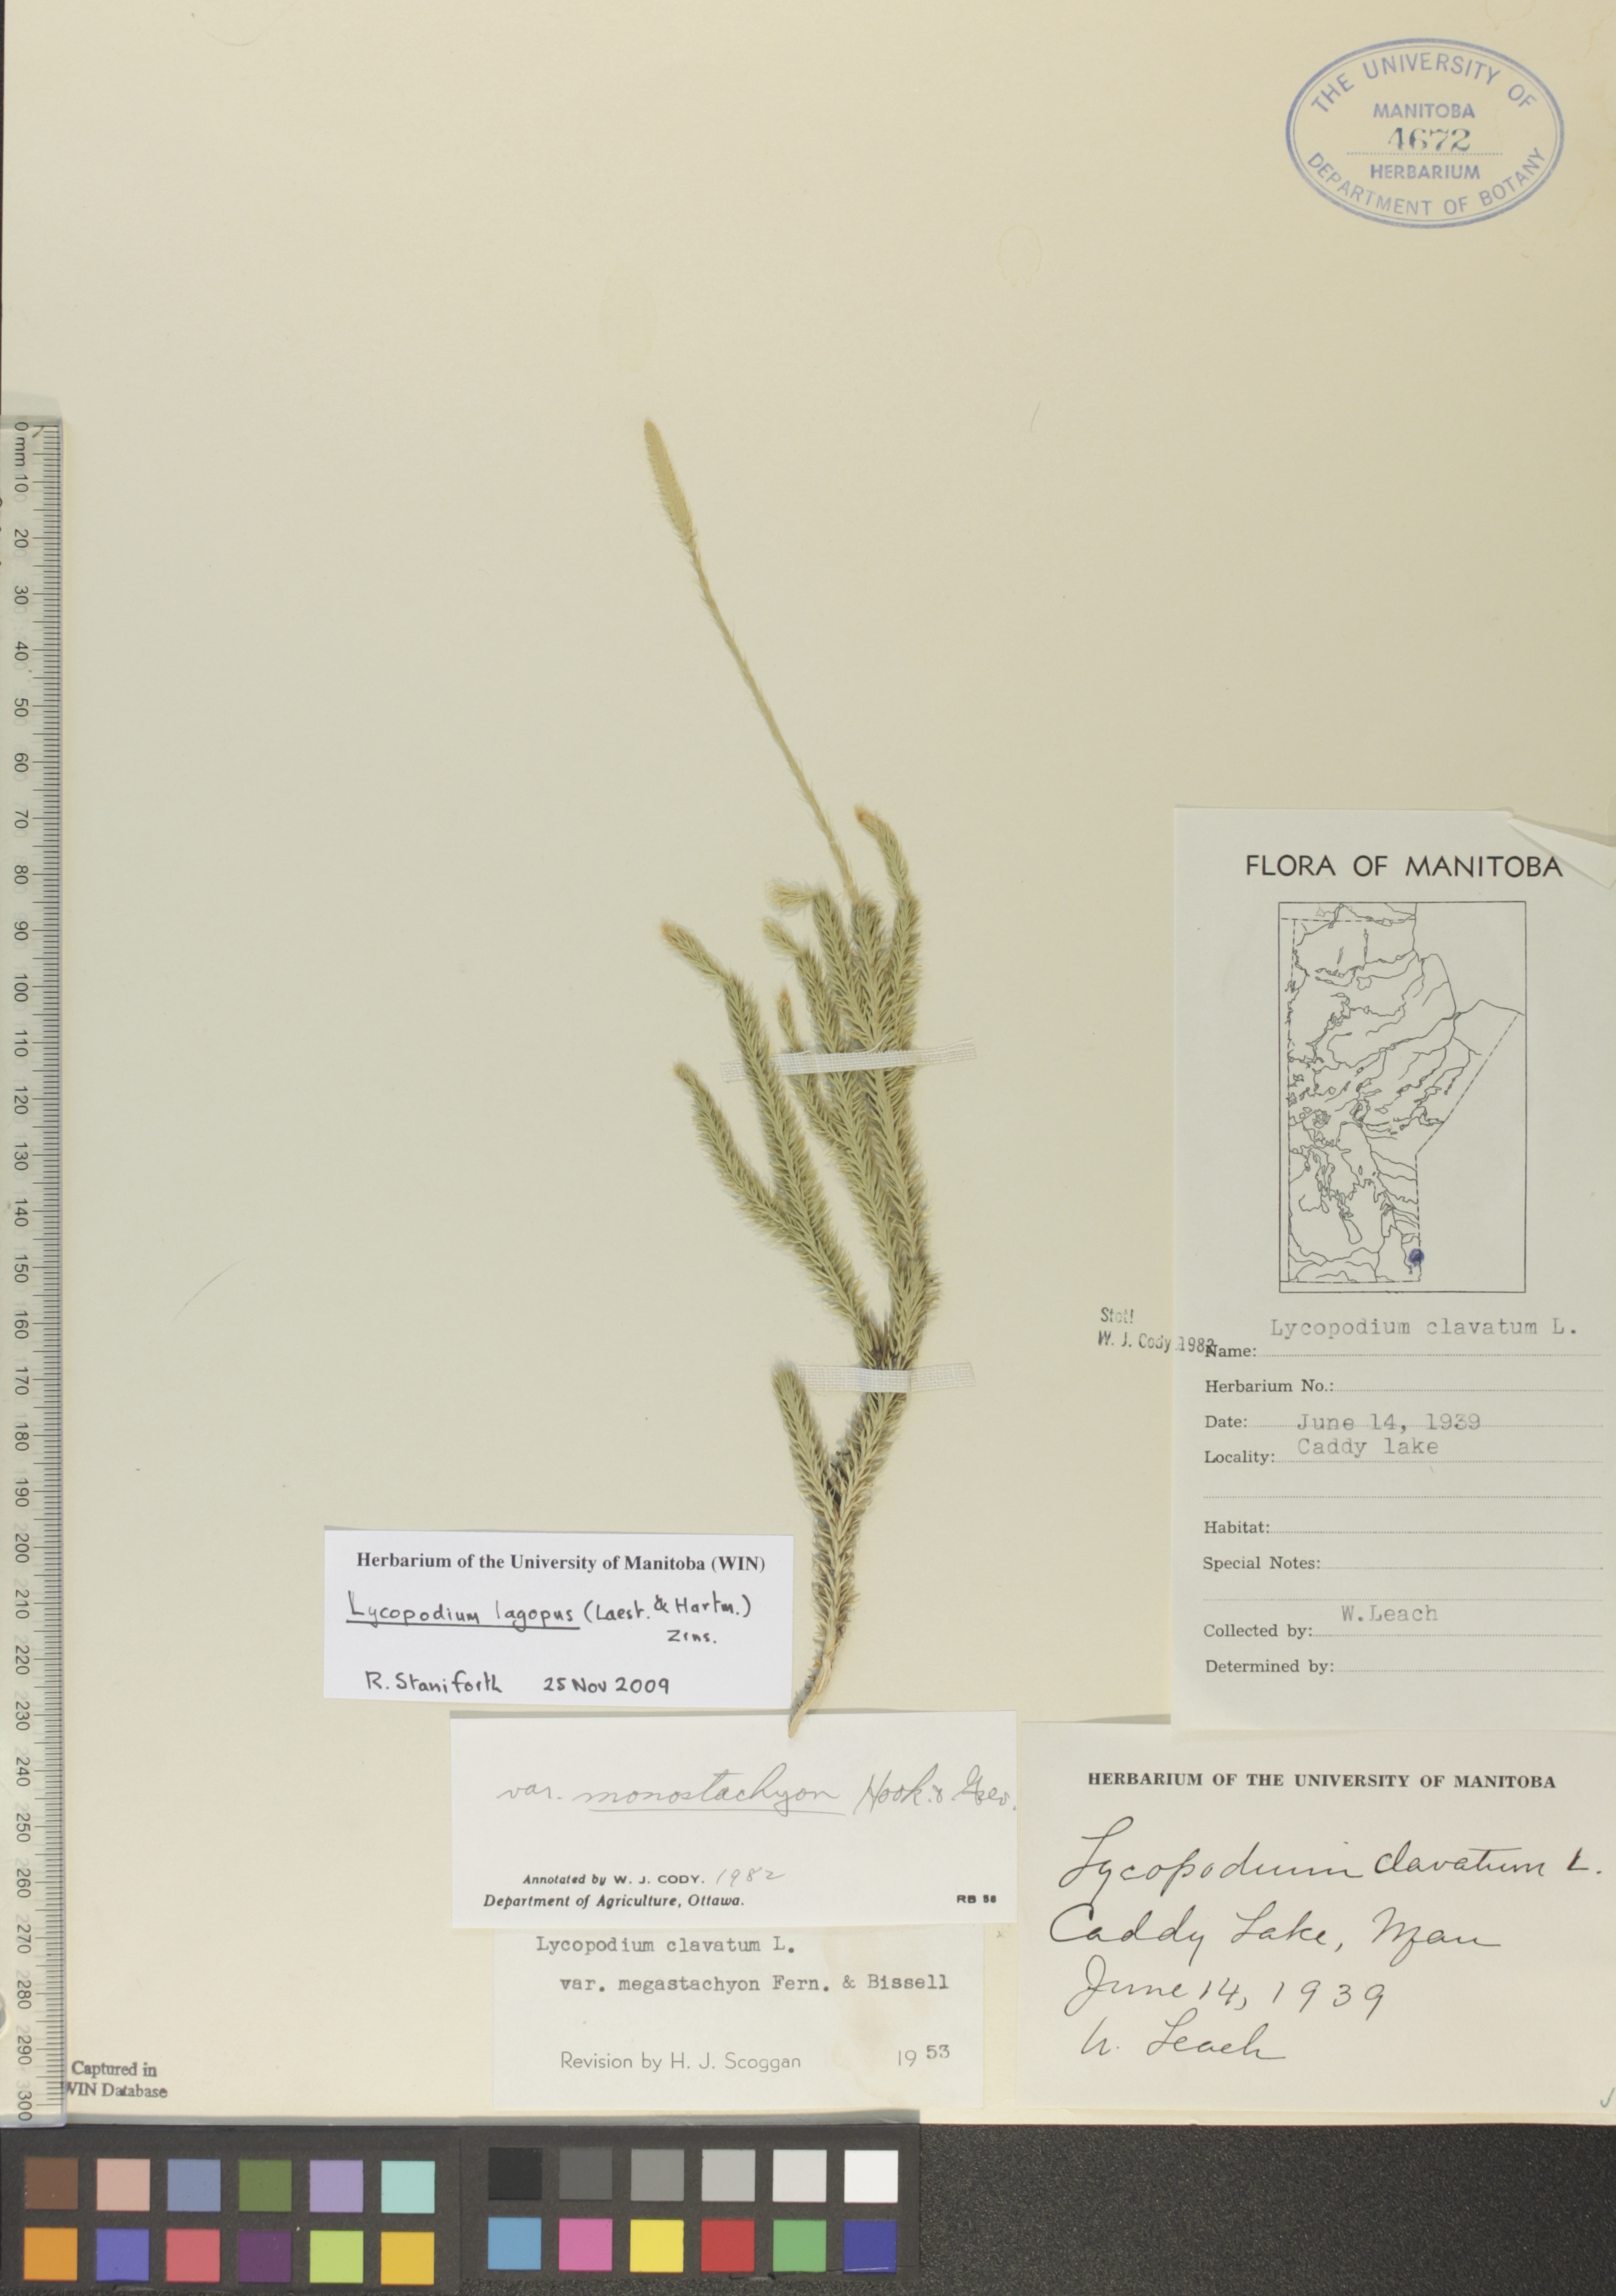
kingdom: Plantae
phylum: Tracheophyta
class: Lycopodiopsida
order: Lycopodiales
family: Lycopodiaceae
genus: Lycopodium
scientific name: Lycopodium lagopus
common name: One-cone clubmoss
